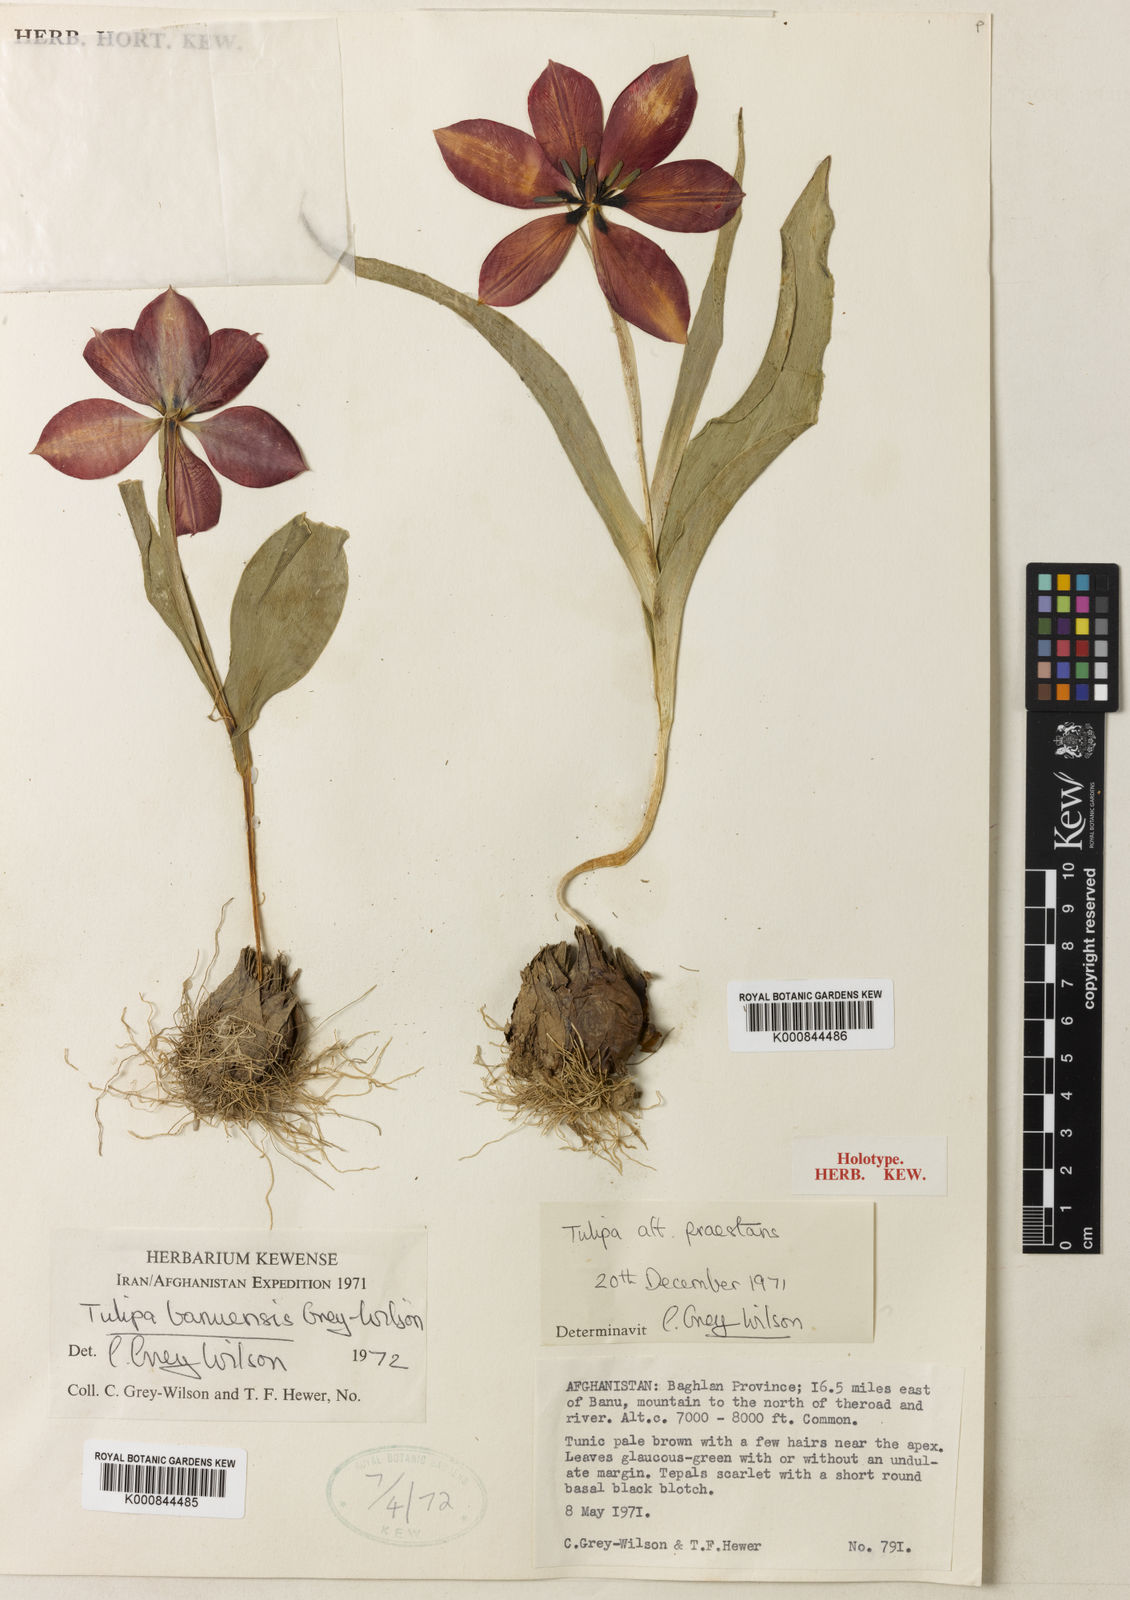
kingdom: Plantae
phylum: Tracheophyta
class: Liliopsida
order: Liliales
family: Liliaceae
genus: Tulipa
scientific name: Tulipa banuensis
